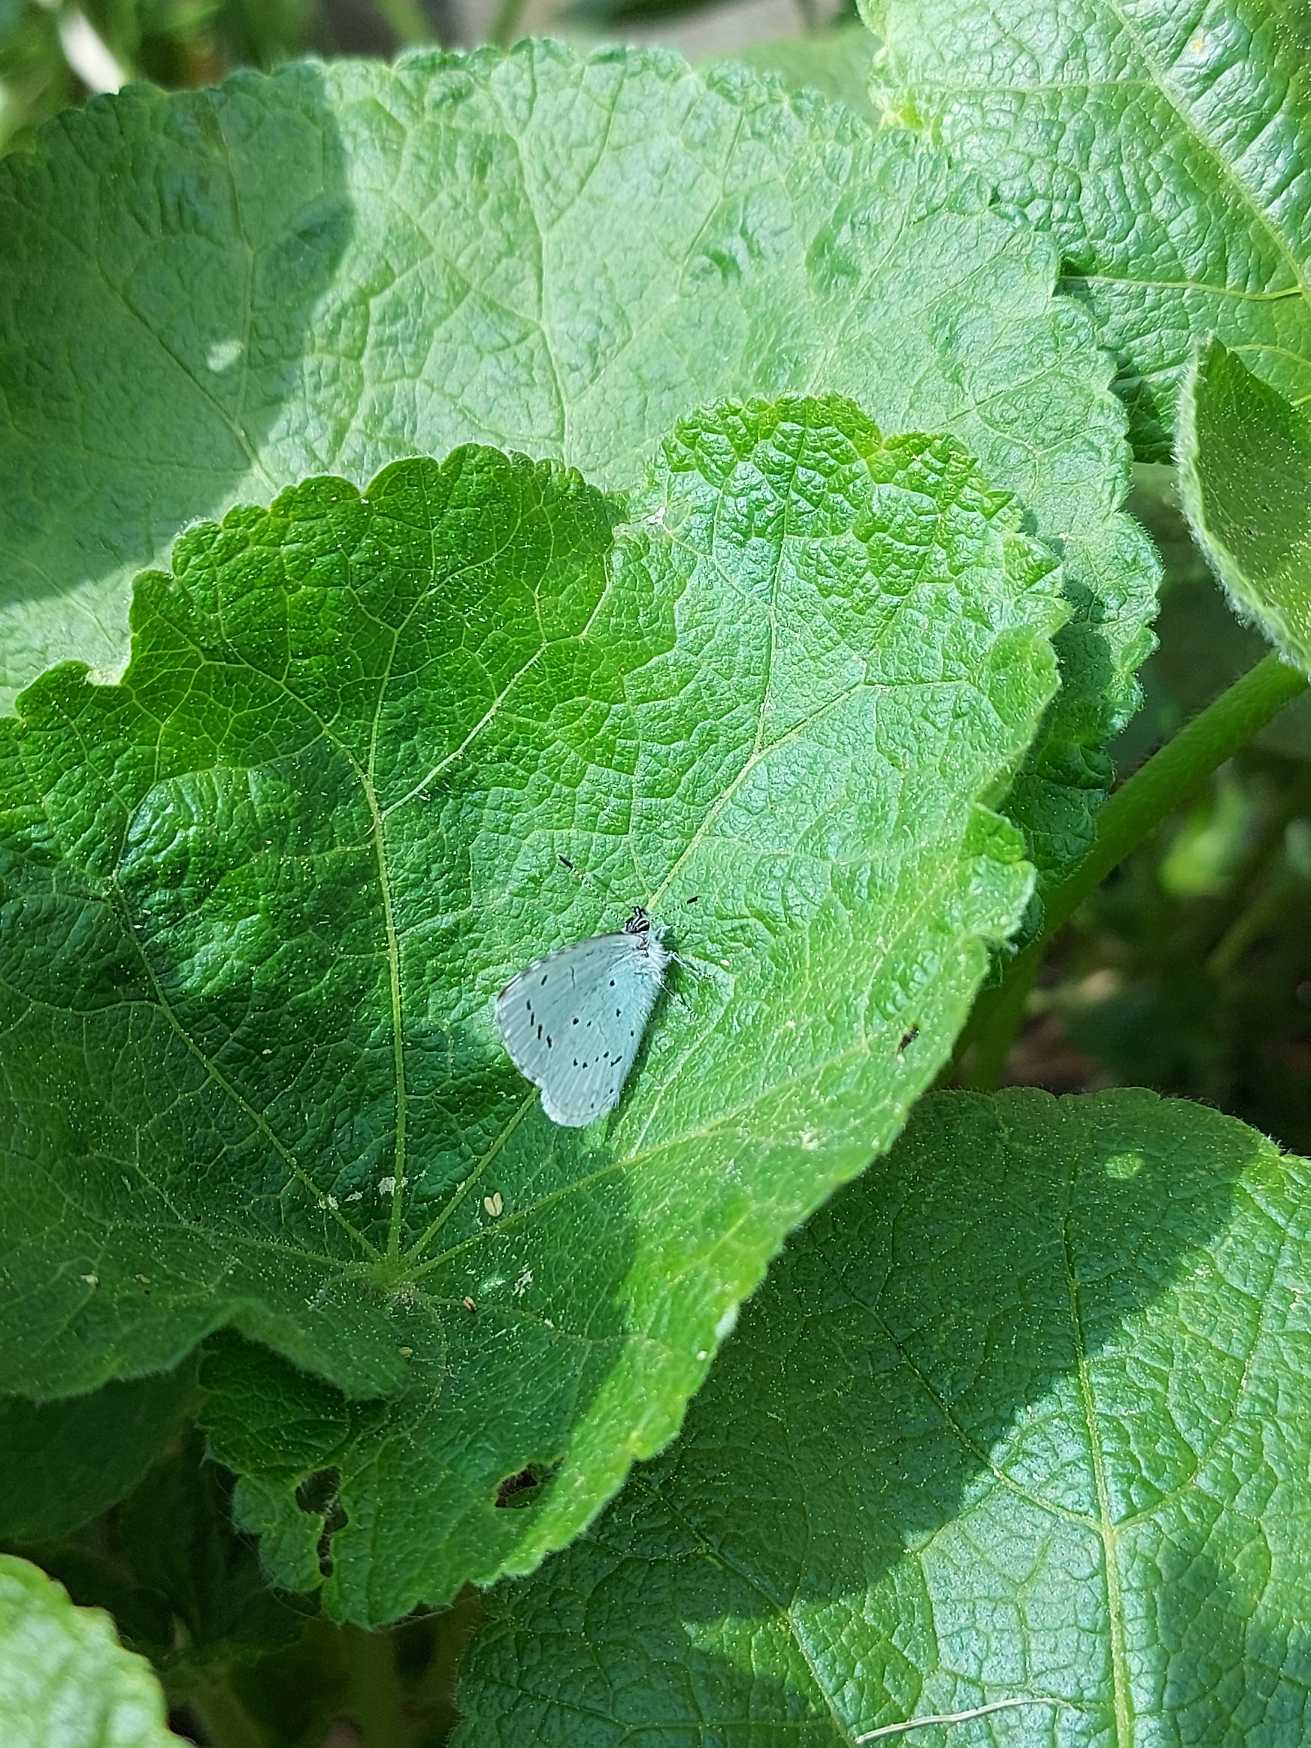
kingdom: Animalia
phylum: Arthropoda
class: Insecta
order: Lepidoptera
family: Lycaenidae
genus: Celastrina
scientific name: Celastrina argiolus
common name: Skovblåfugl
